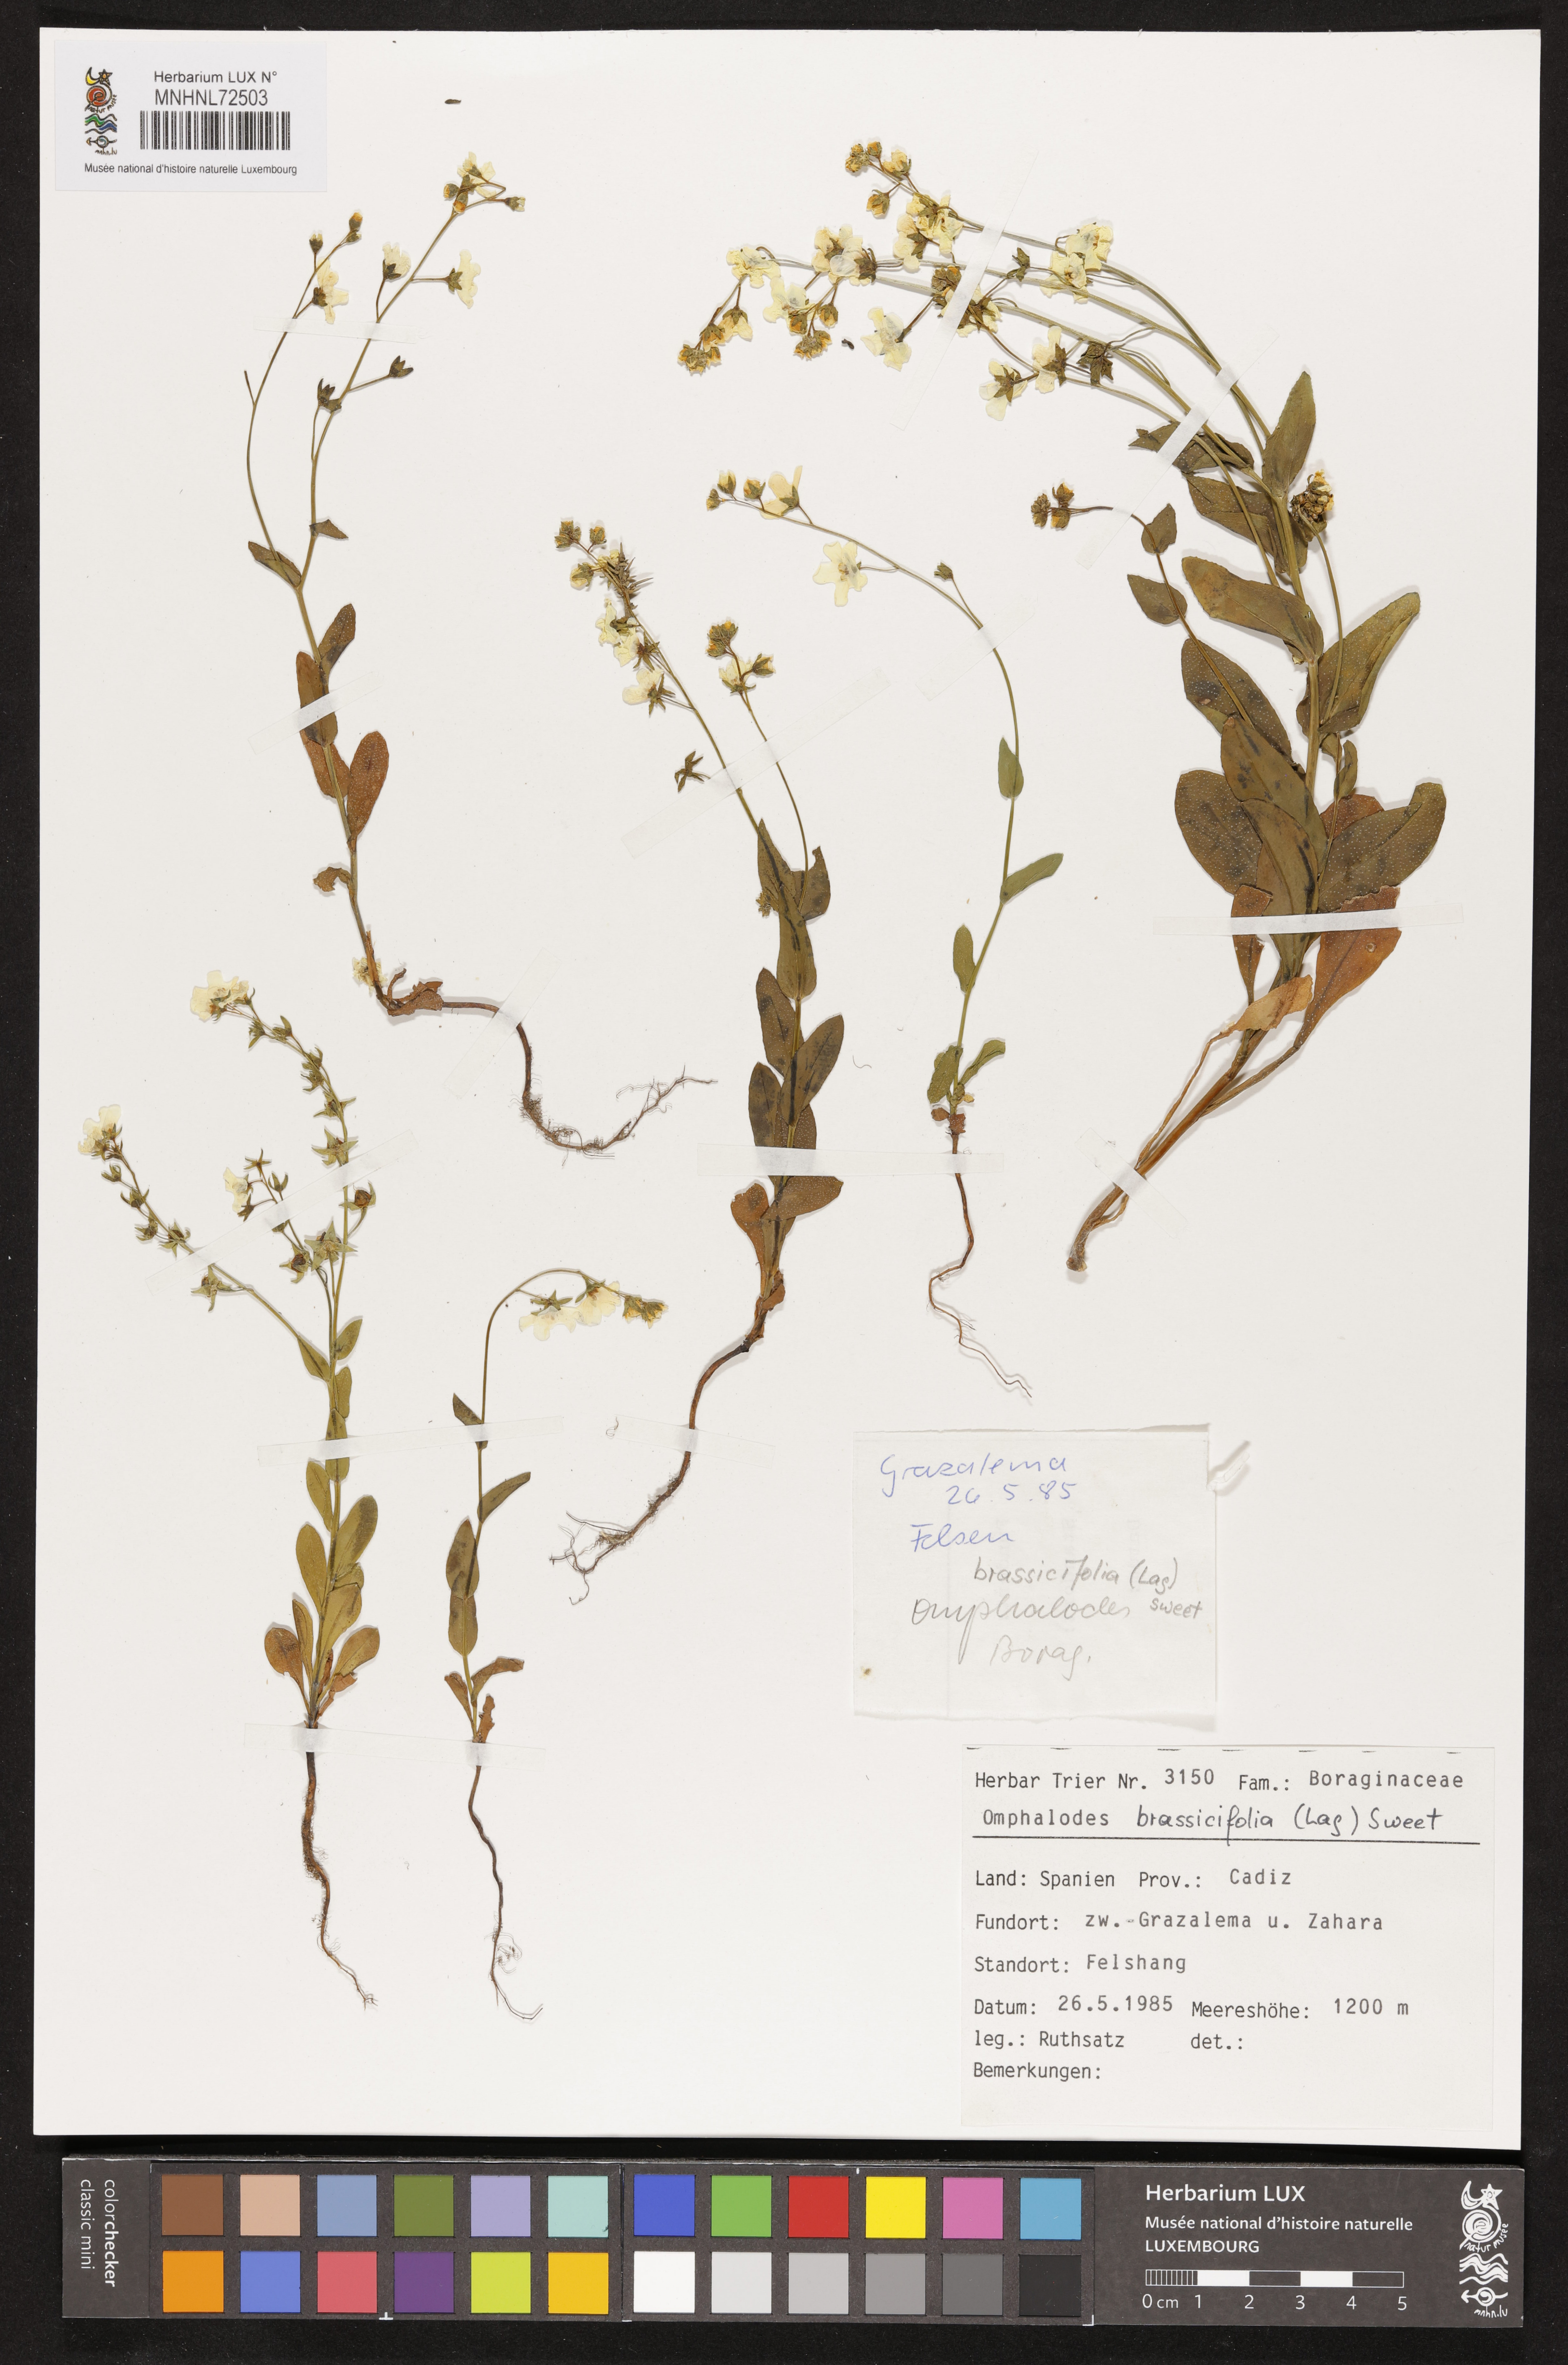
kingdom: Plantae
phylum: Tracheophyta
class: Magnoliopsida
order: Boraginales
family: Boraginaceae
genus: Iberodes
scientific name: Iberodes brassicifolia
